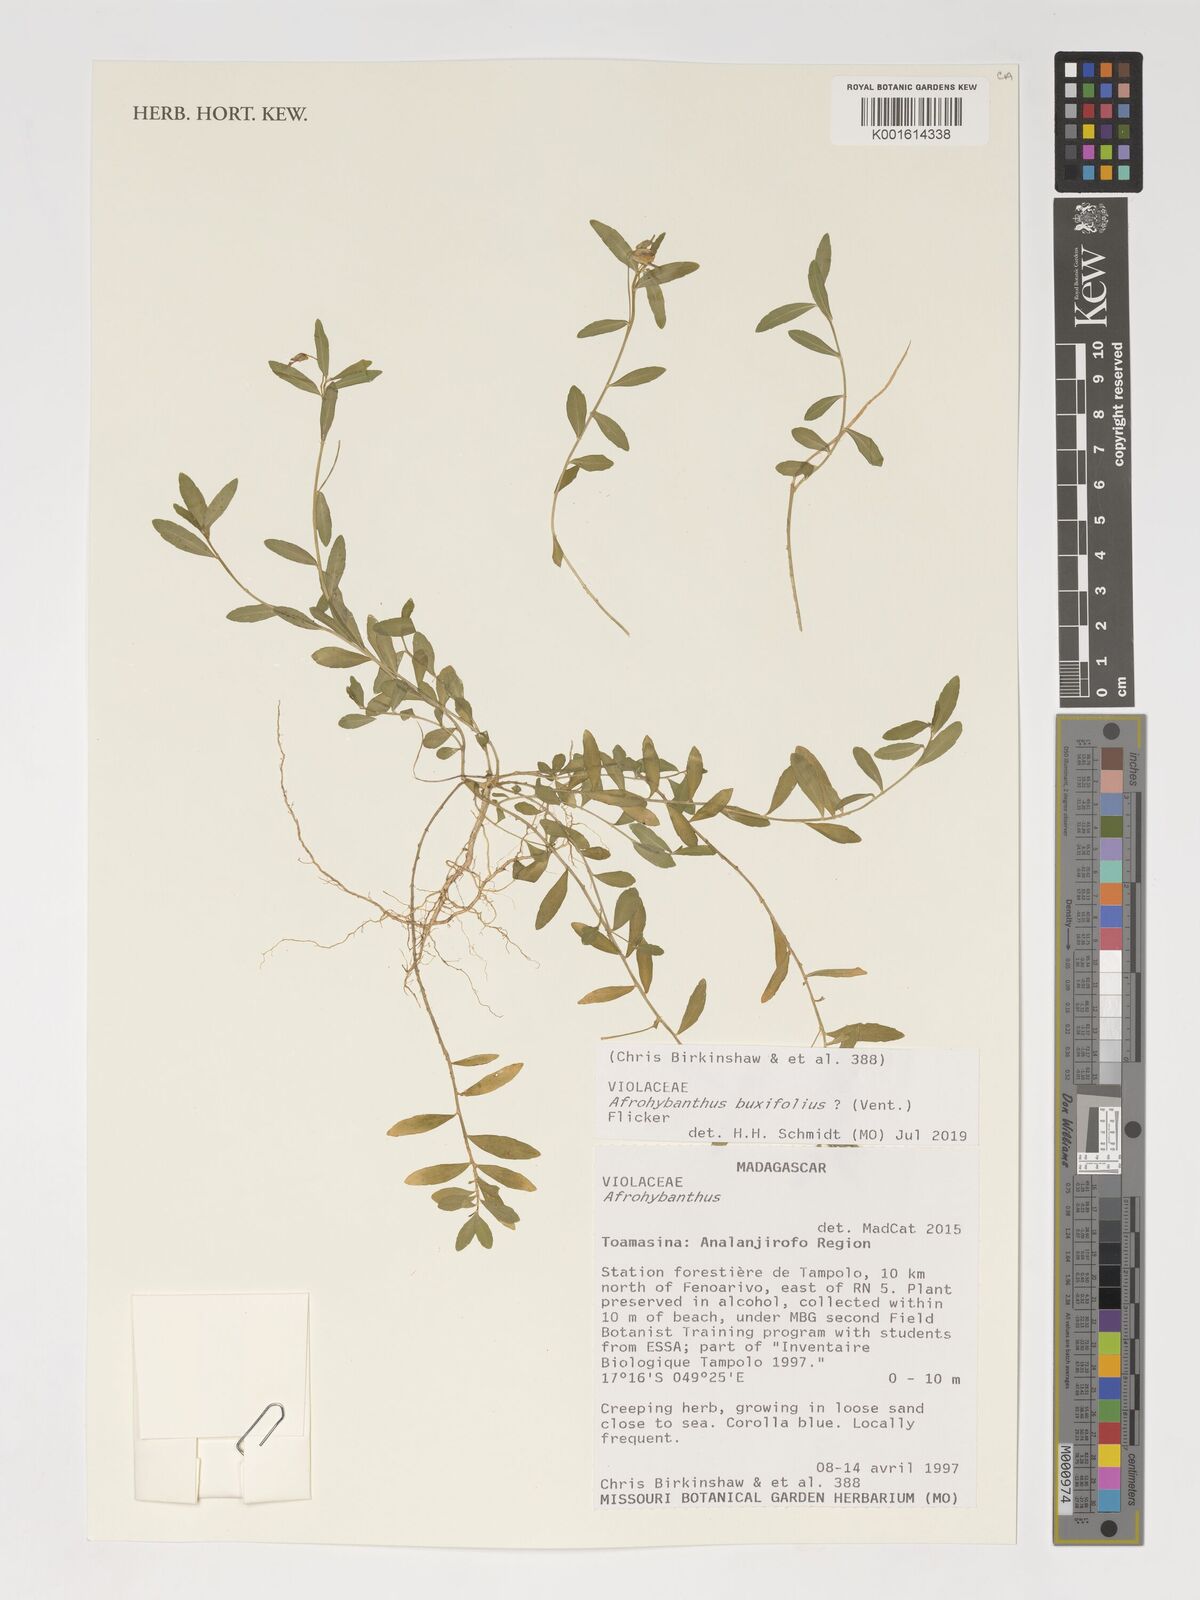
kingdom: Plantae
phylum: Tracheophyta
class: Magnoliopsida
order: Malpighiales
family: Violaceae
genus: Pigea
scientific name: Pigea buxifolia
